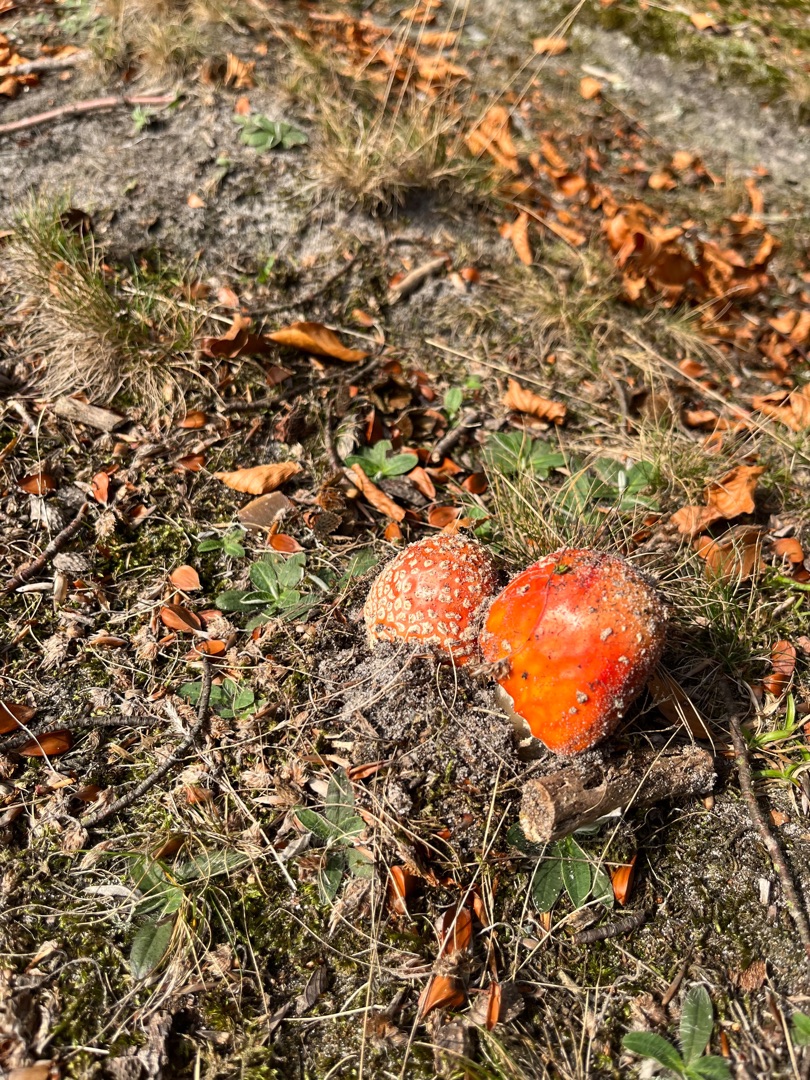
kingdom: Fungi
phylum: Basidiomycota
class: Agaricomycetes
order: Agaricales
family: Amanitaceae
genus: Amanita
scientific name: Amanita muscaria
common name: Rød fluesvamp
